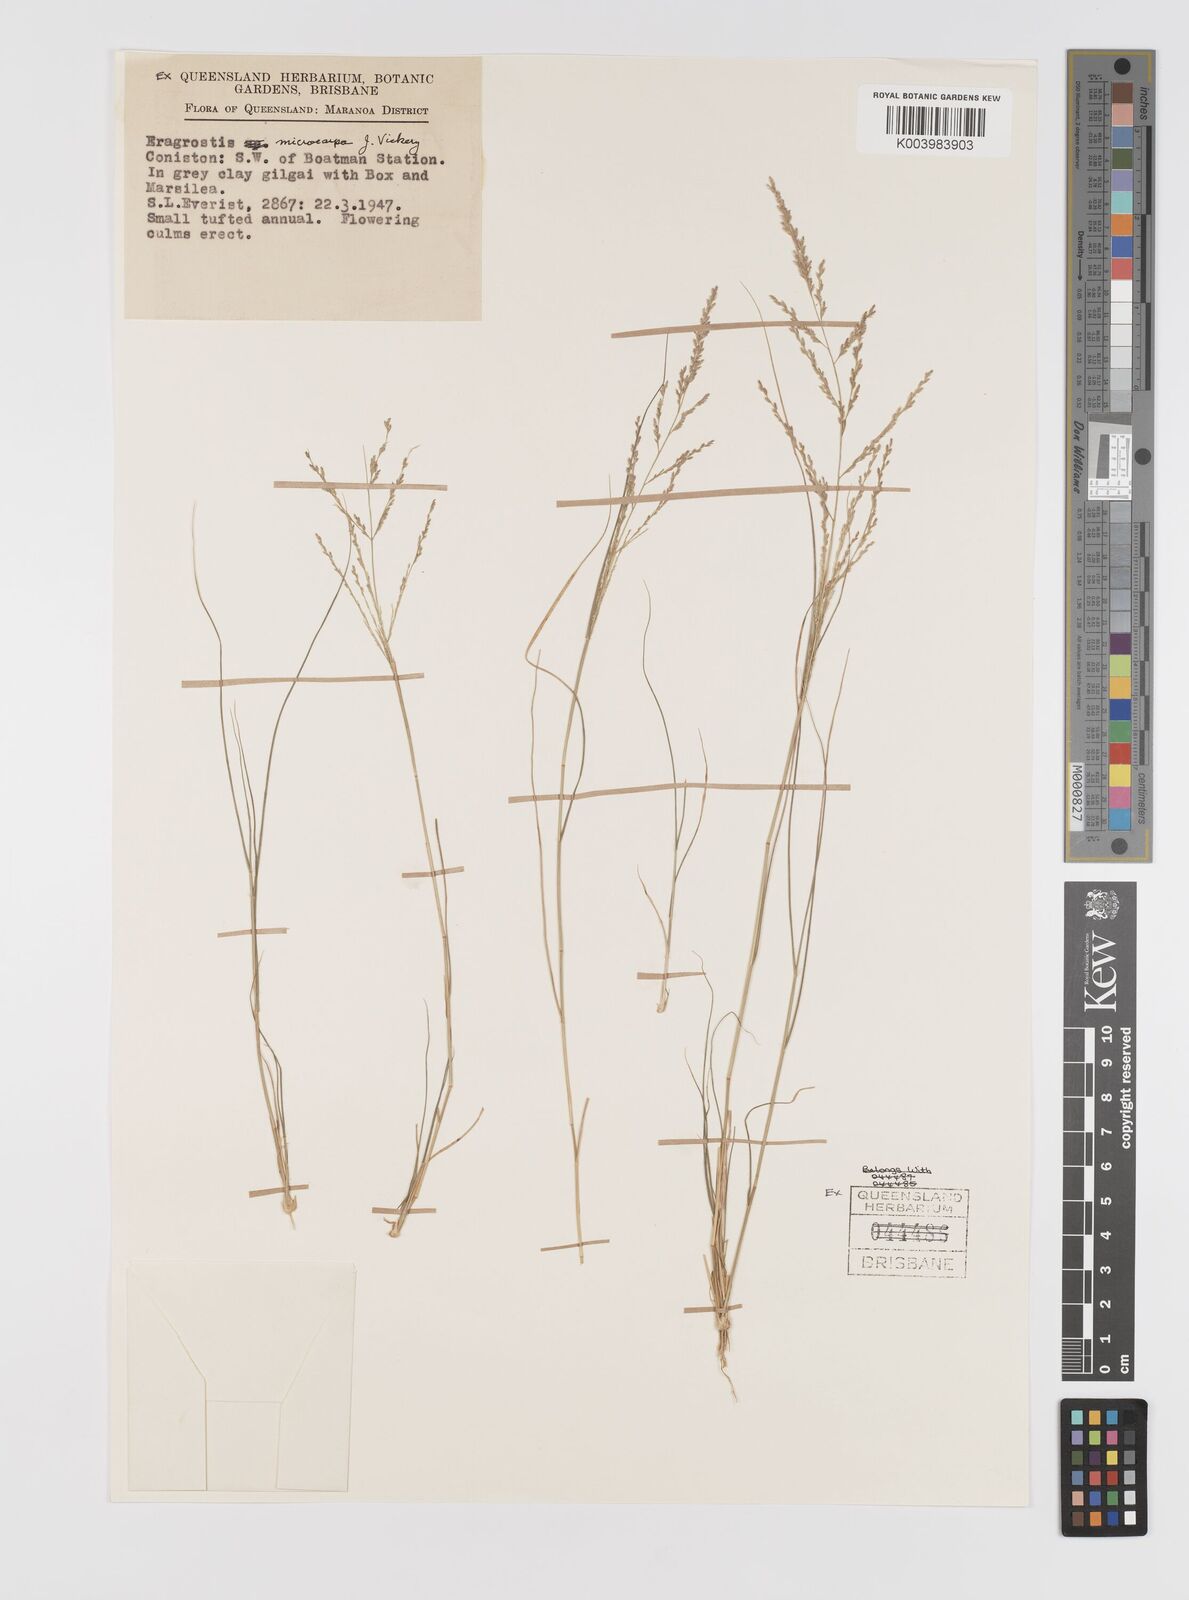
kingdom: Plantae
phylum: Tracheophyta
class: Liliopsida
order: Poales
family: Poaceae
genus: Eragrostis
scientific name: Eragrostis microcarpa
